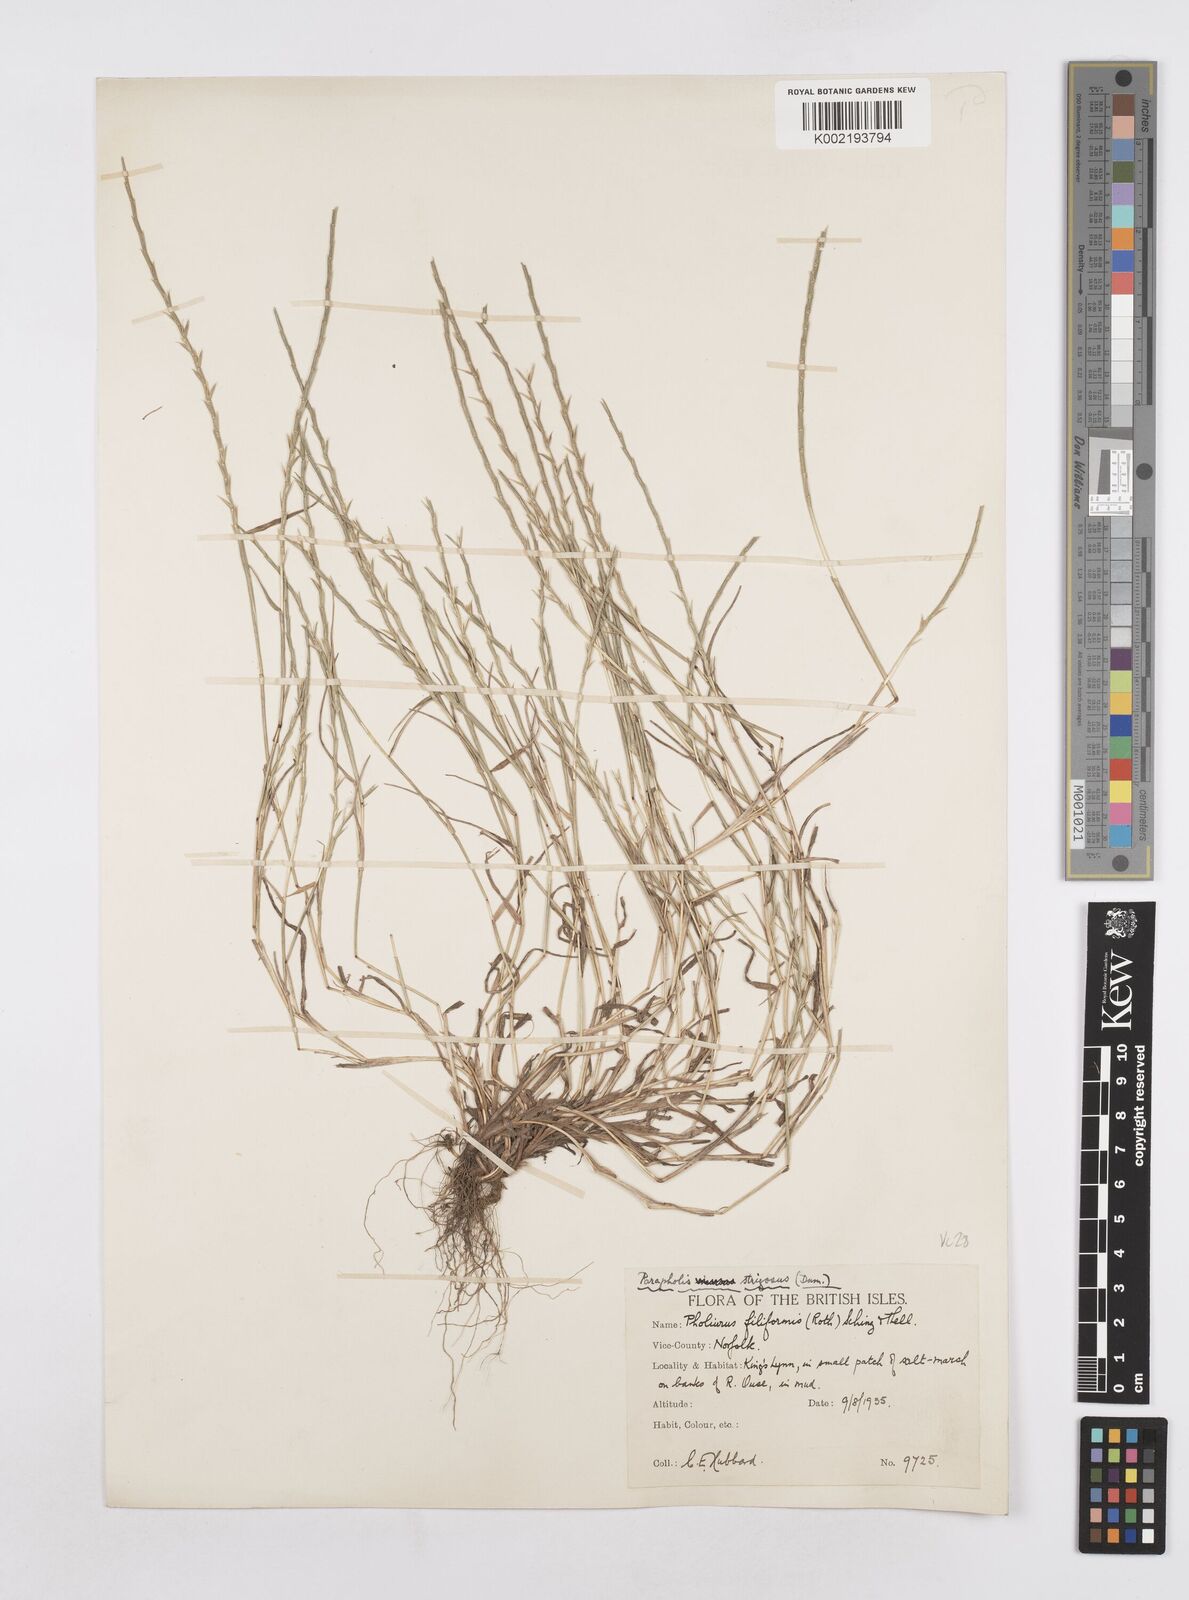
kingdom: Plantae
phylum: Tracheophyta
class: Liliopsida
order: Poales
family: Poaceae
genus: Parapholis
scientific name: Parapholis
